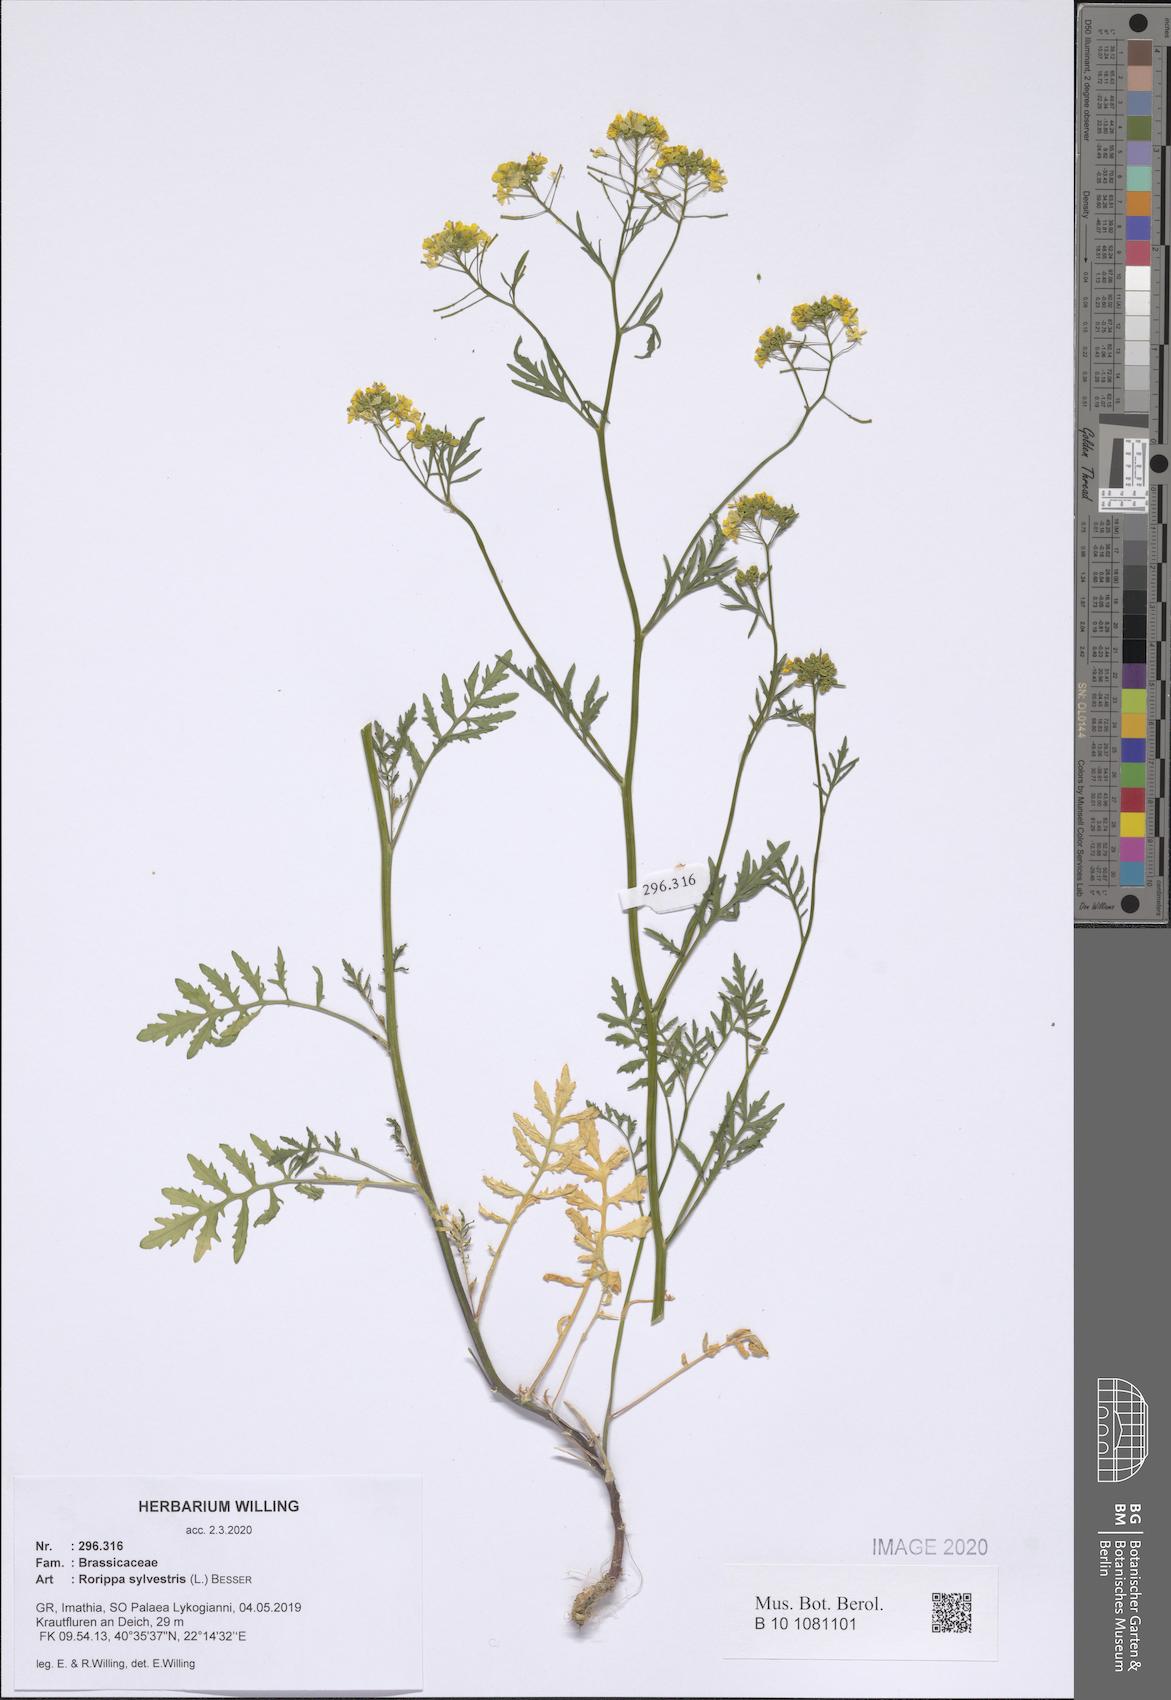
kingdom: Plantae
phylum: Tracheophyta
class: Magnoliopsida
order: Brassicales
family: Brassicaceae
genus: Rorippa
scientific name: Rorippa sylvestris
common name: Creeping yellowcress
